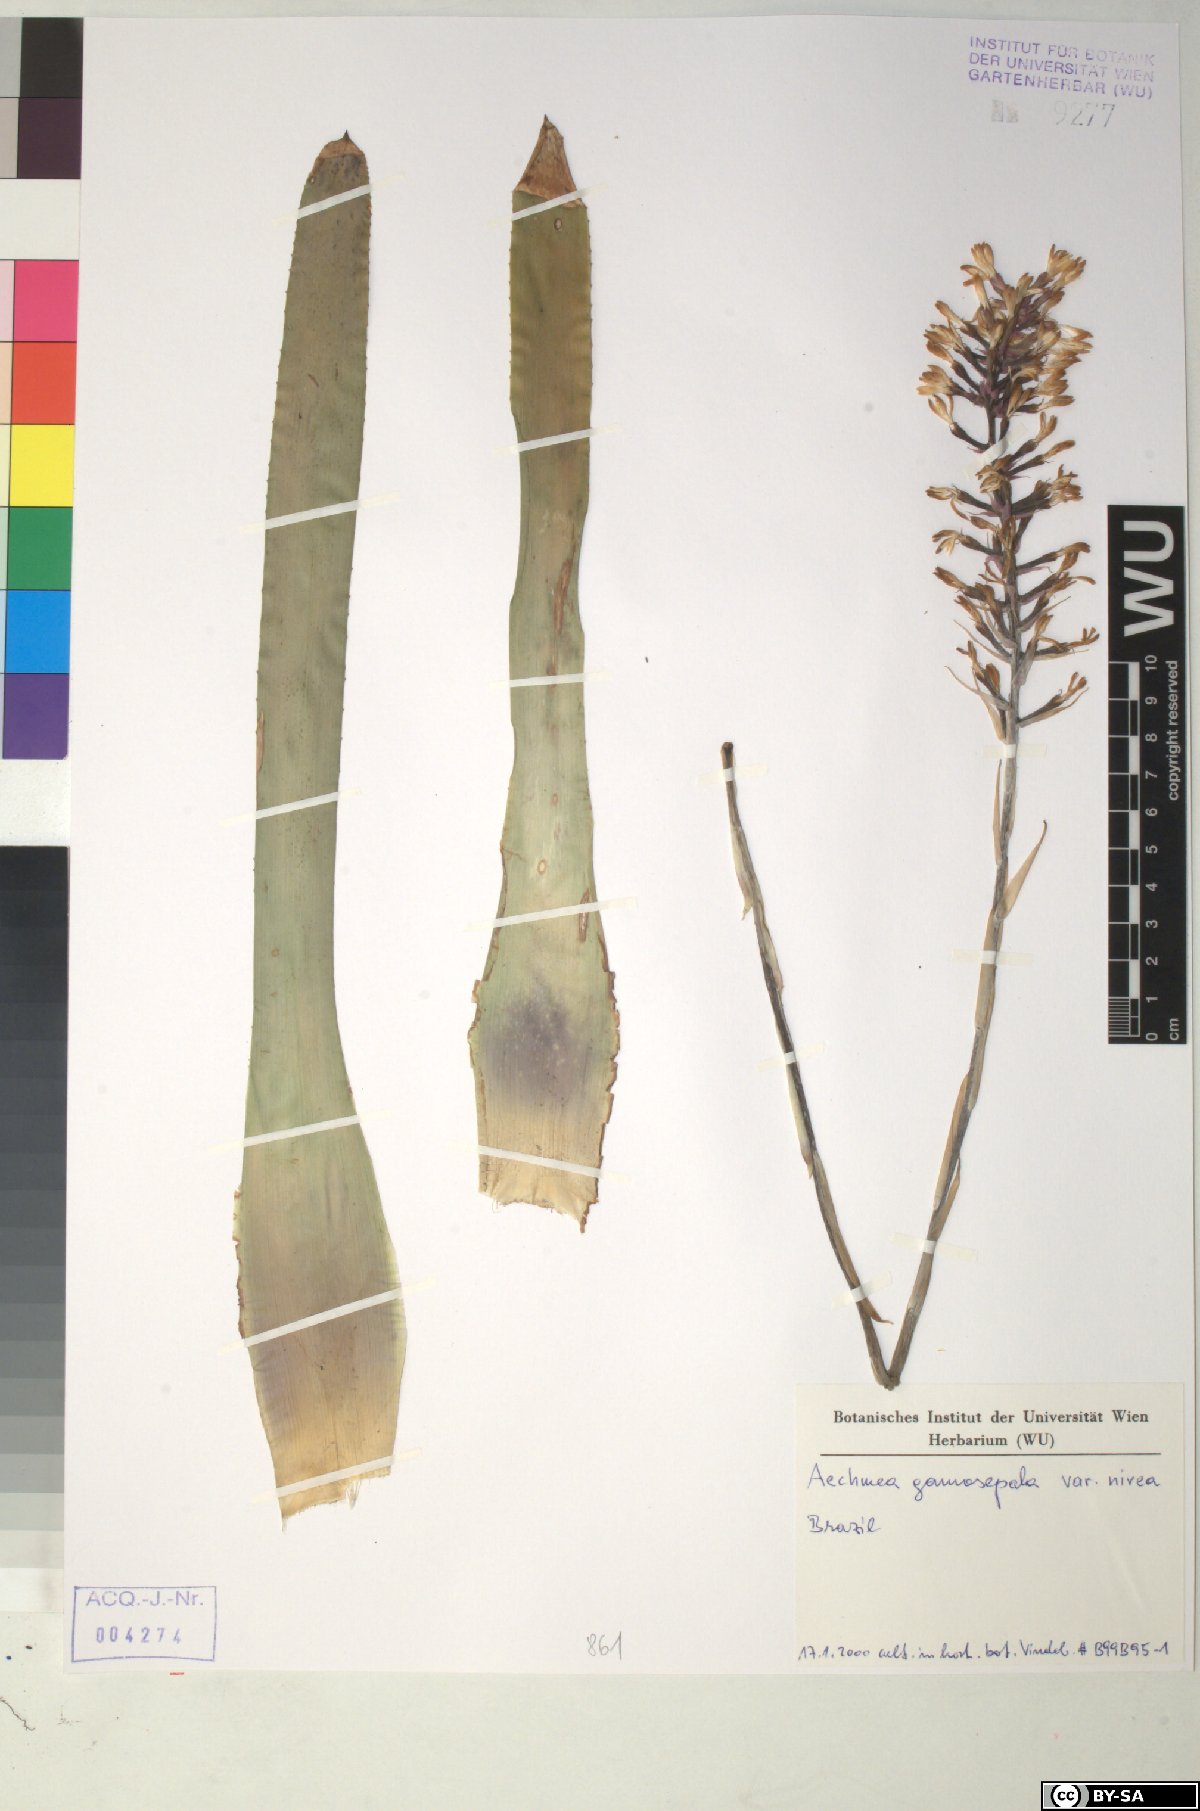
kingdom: Plantae
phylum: Tracheophyta
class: Liliopsida
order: Poales
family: Bromeliaceae
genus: Aechmea
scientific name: Aechmea
